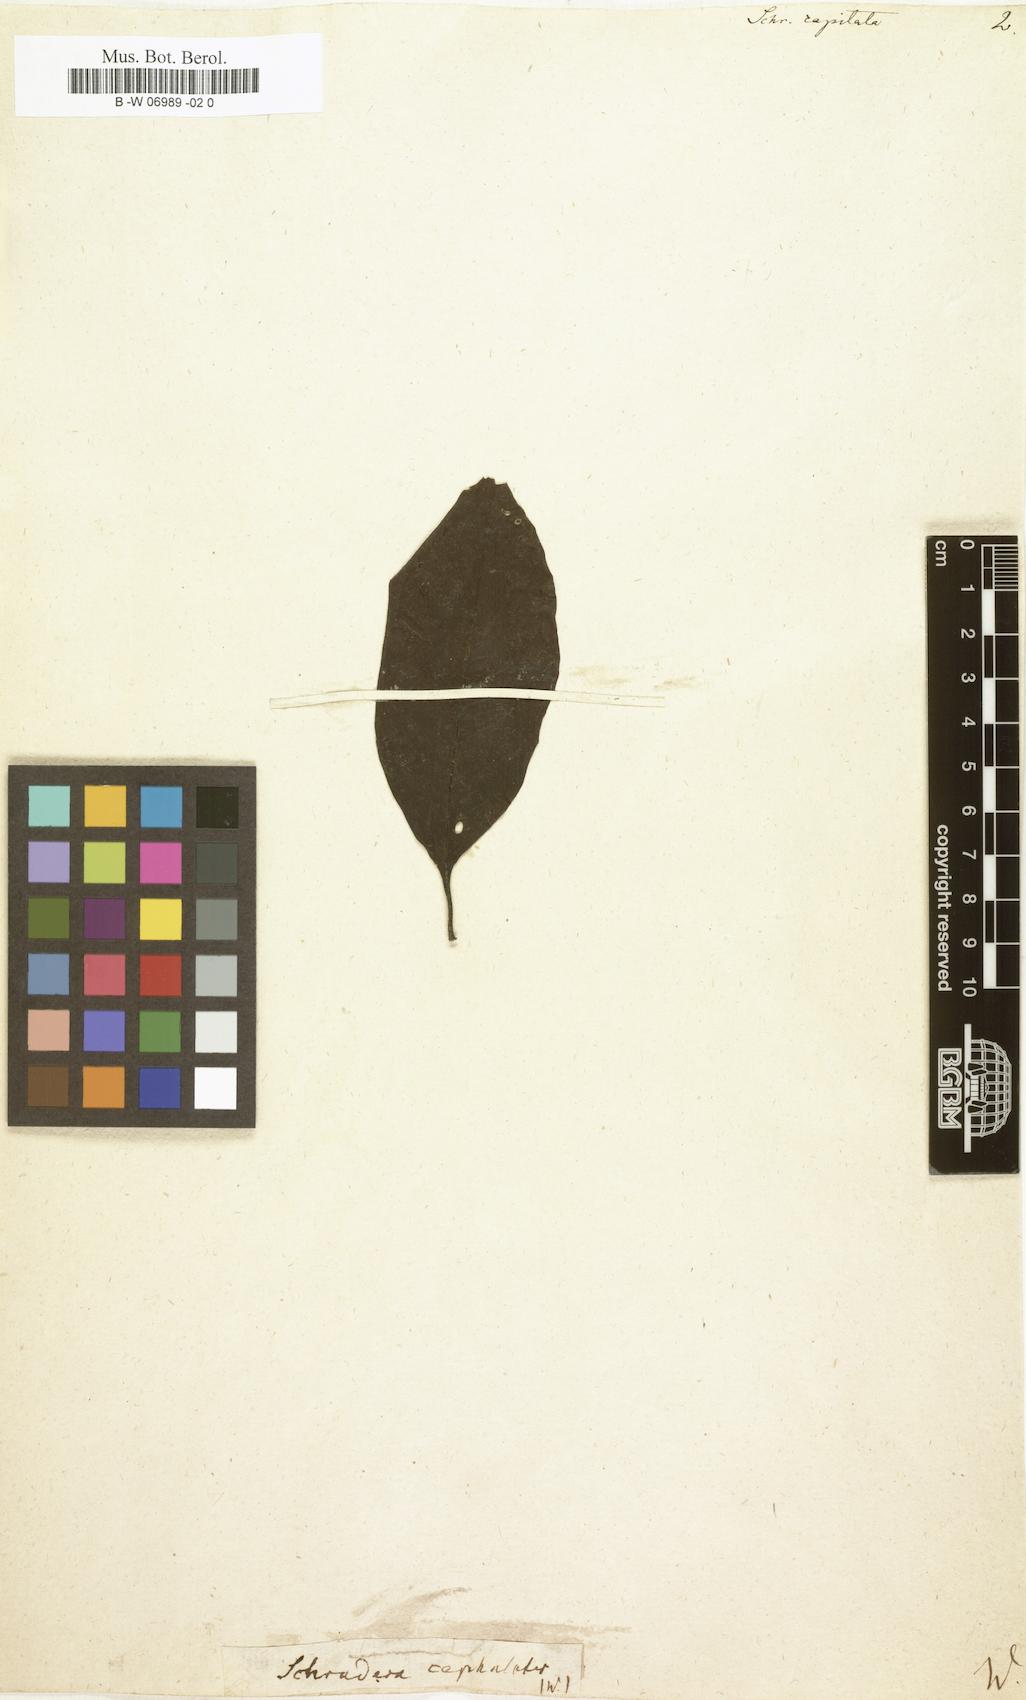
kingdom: Plantae
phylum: Tracheophyta
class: Magnoliopsida
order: Gentianales
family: Rubiaceae
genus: Schradera
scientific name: Schradera involucrata
